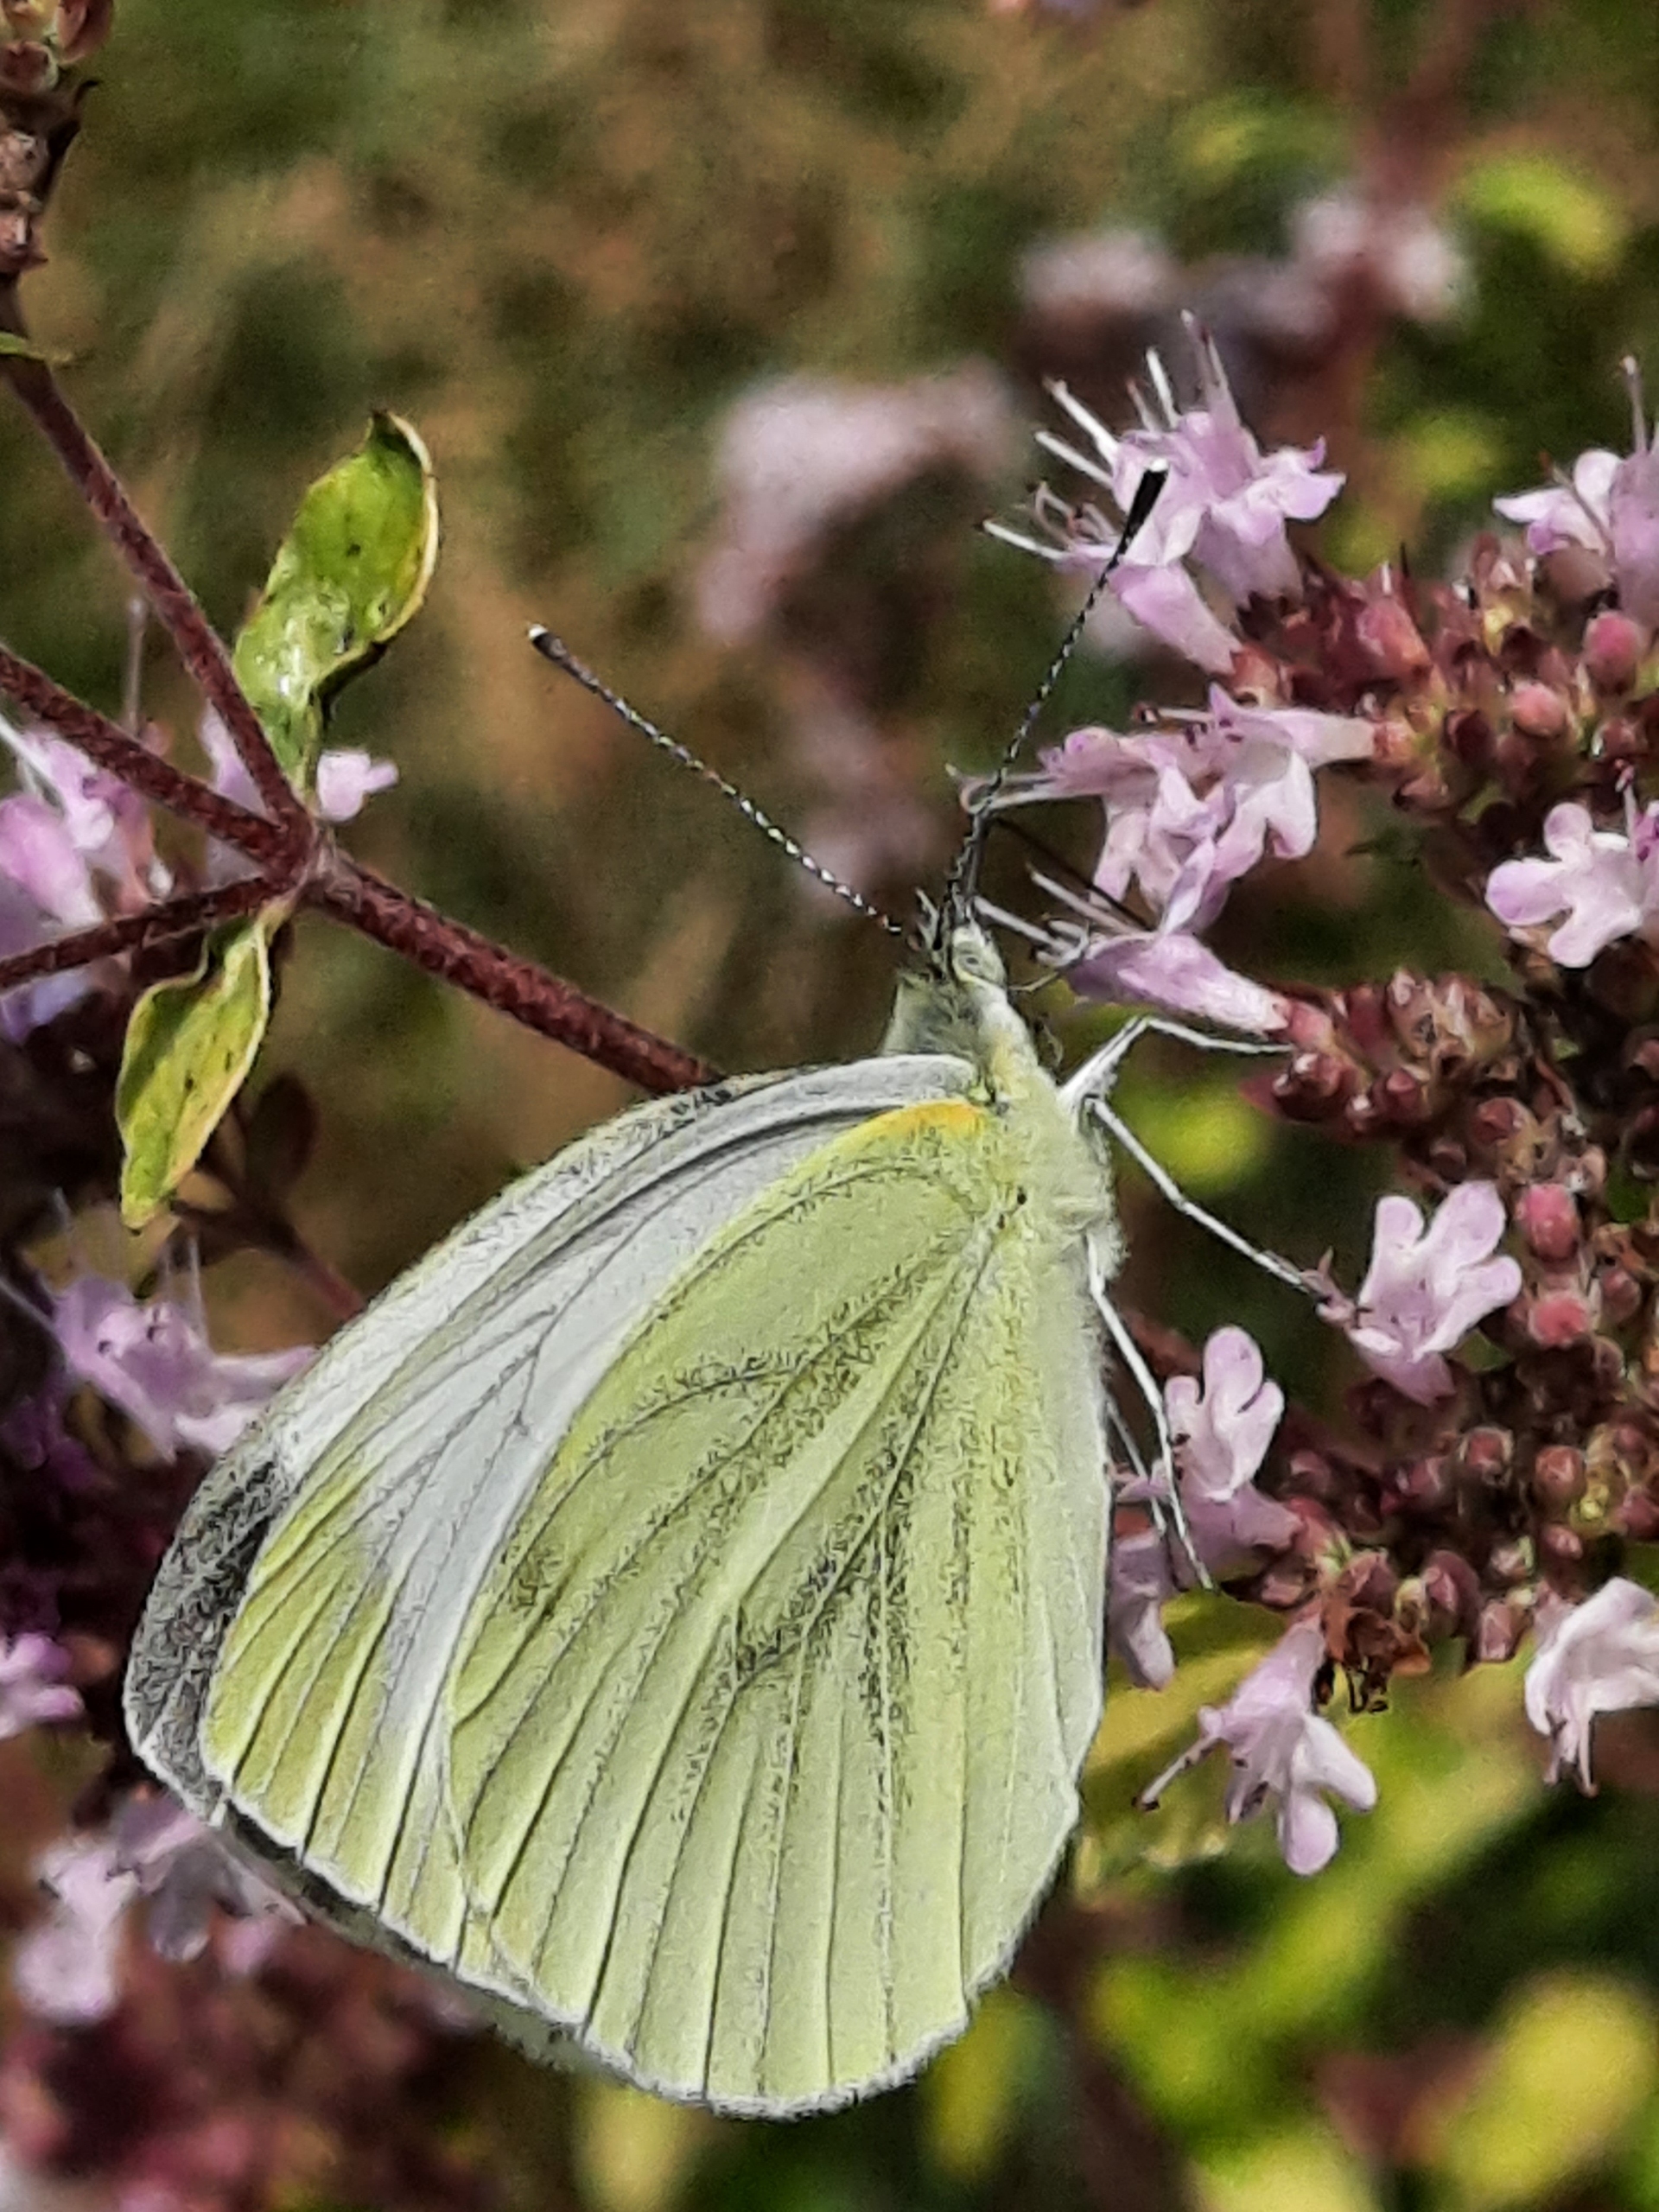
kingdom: Animalia
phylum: Arthropoda
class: Insecta
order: Lepidoptera
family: Pieridae
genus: Pieris
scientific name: Pieris napi
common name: Grønåret kålsommerfugl
